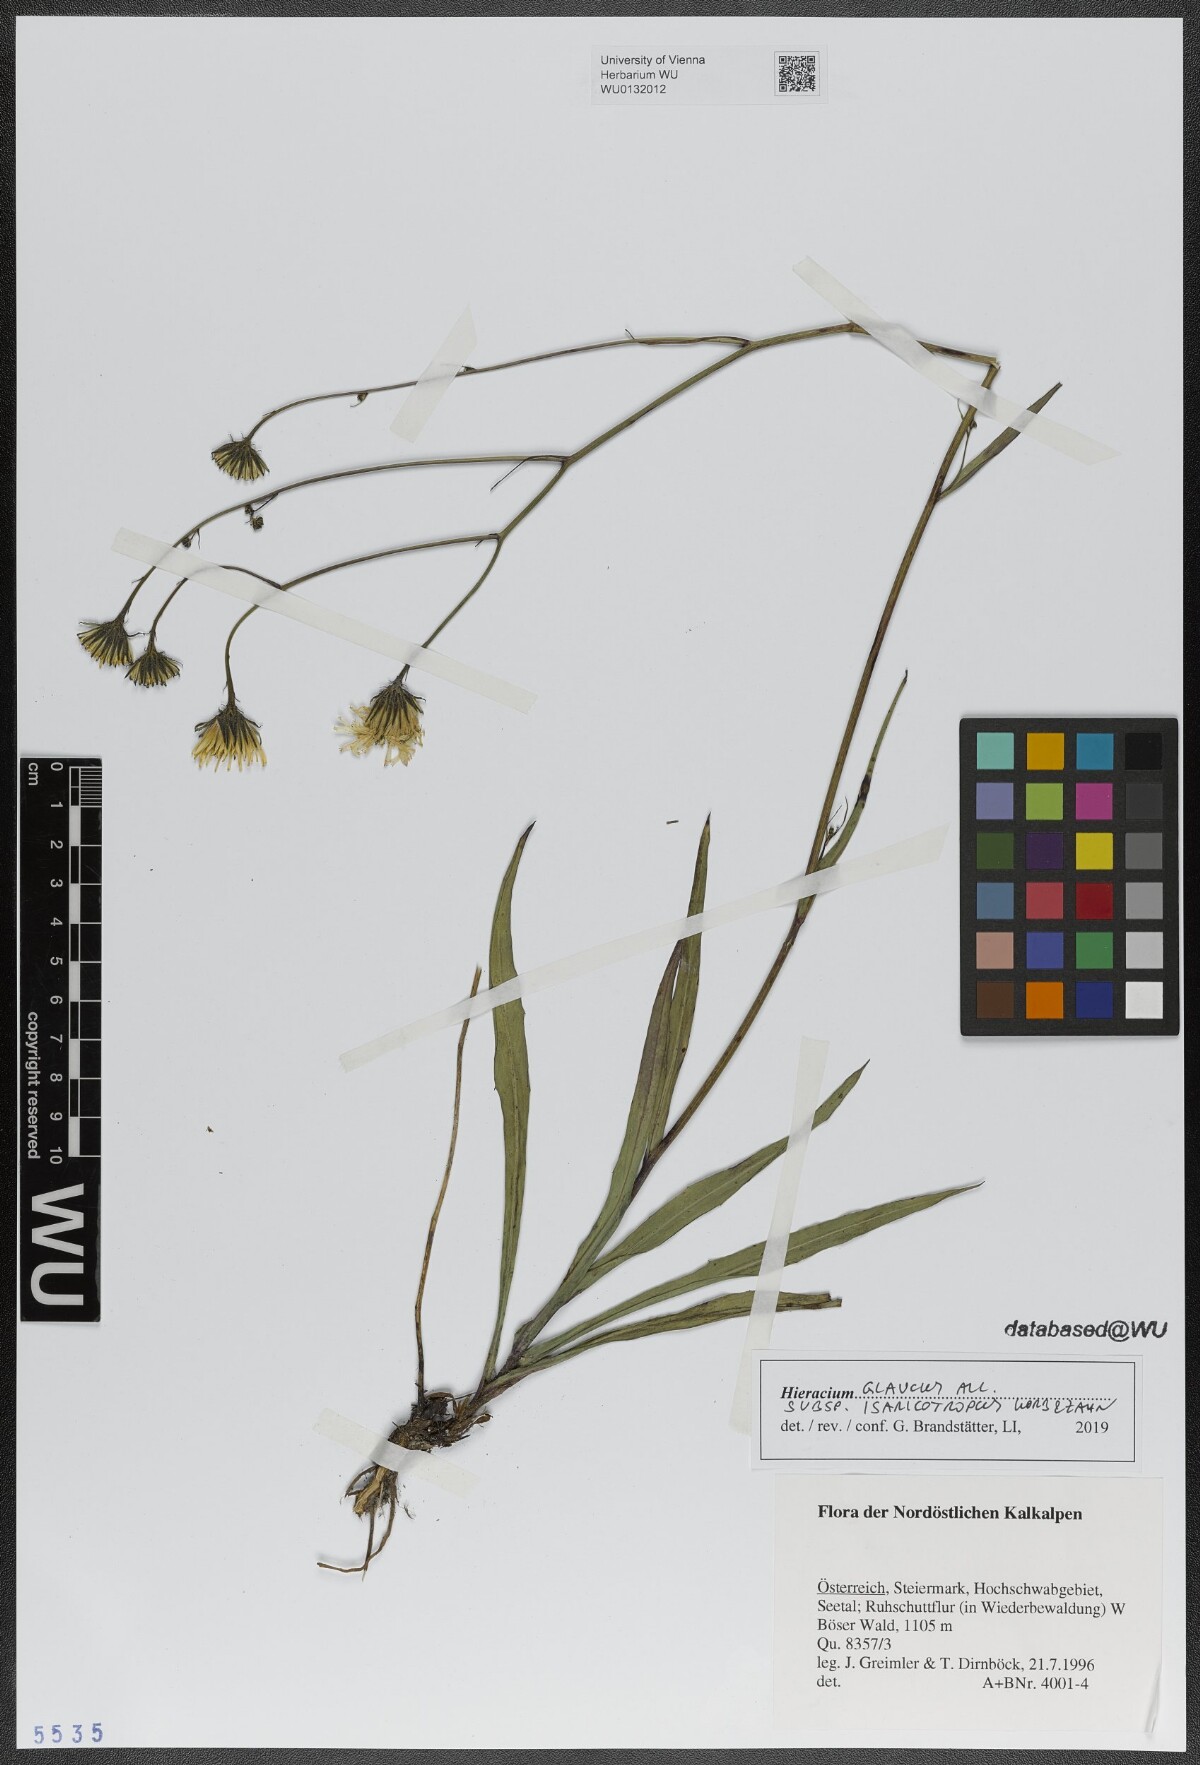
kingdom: Plantae
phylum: Tracheophyta
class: Magnoliopsida
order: Asterales
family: Asteraceae
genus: Hieracium
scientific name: Hieracium glaucum
